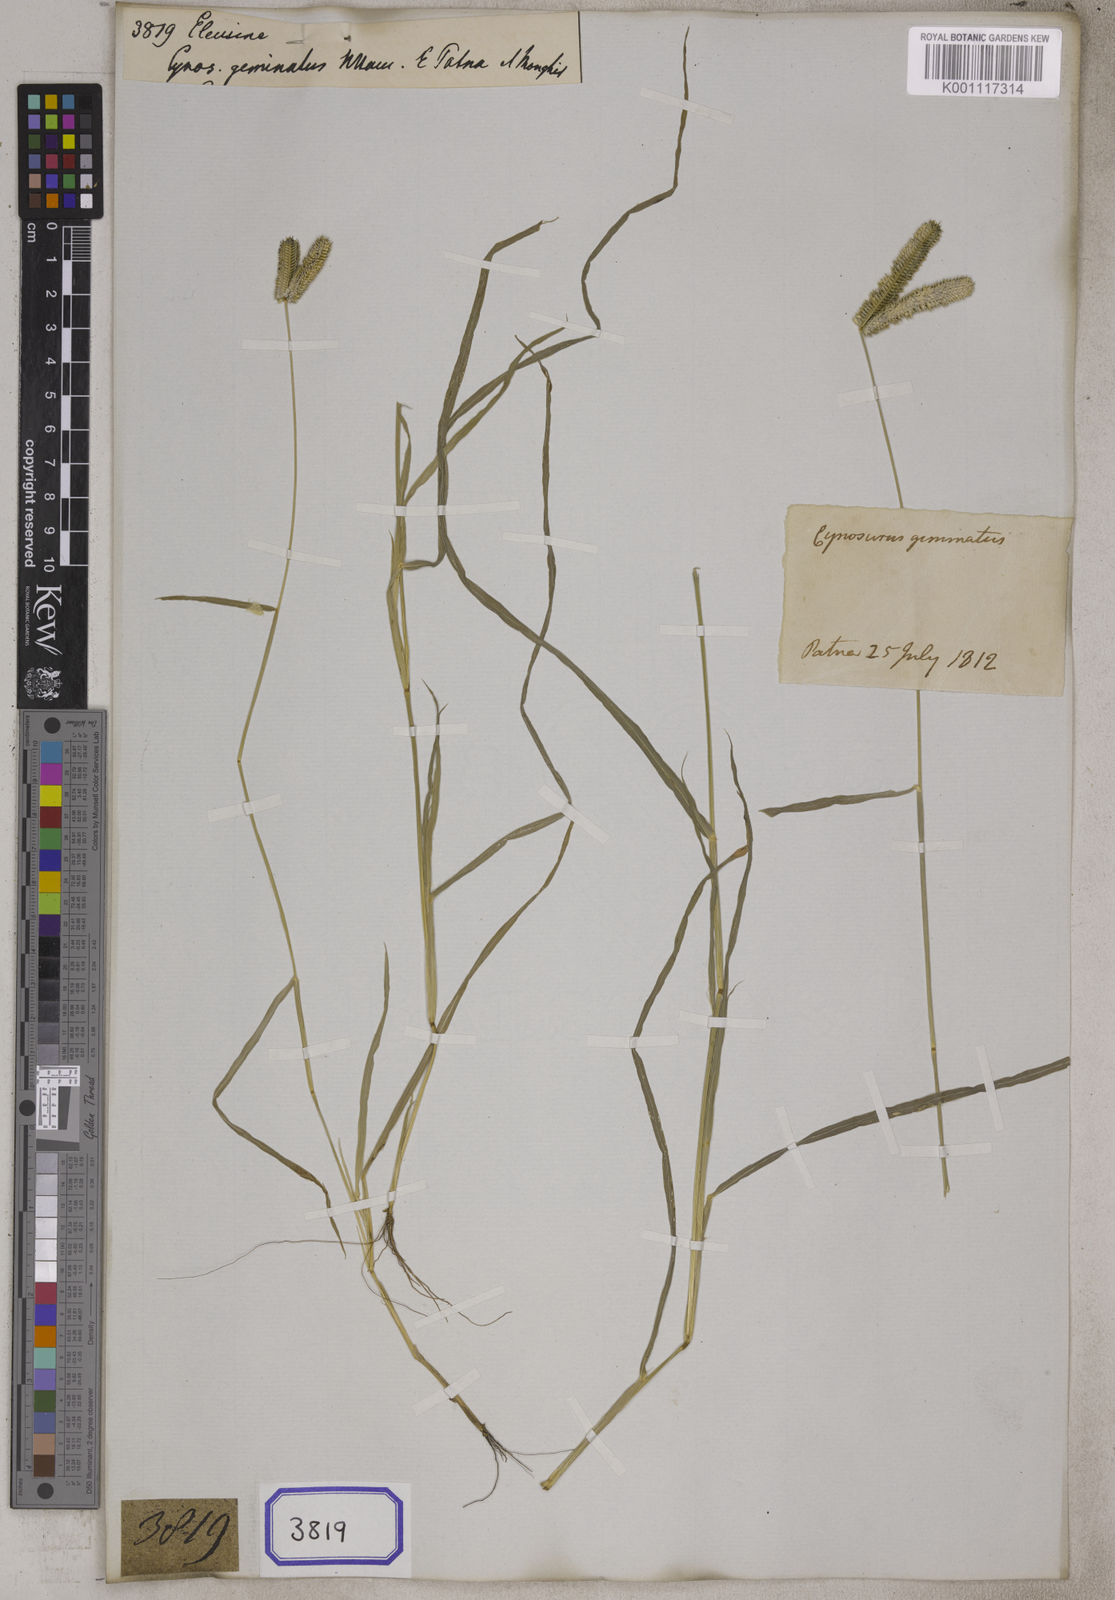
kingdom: Plantae
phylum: Tracheophyta
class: Liliopsida
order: Poales
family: Poaceae
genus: Eleusine
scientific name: Eleusine
